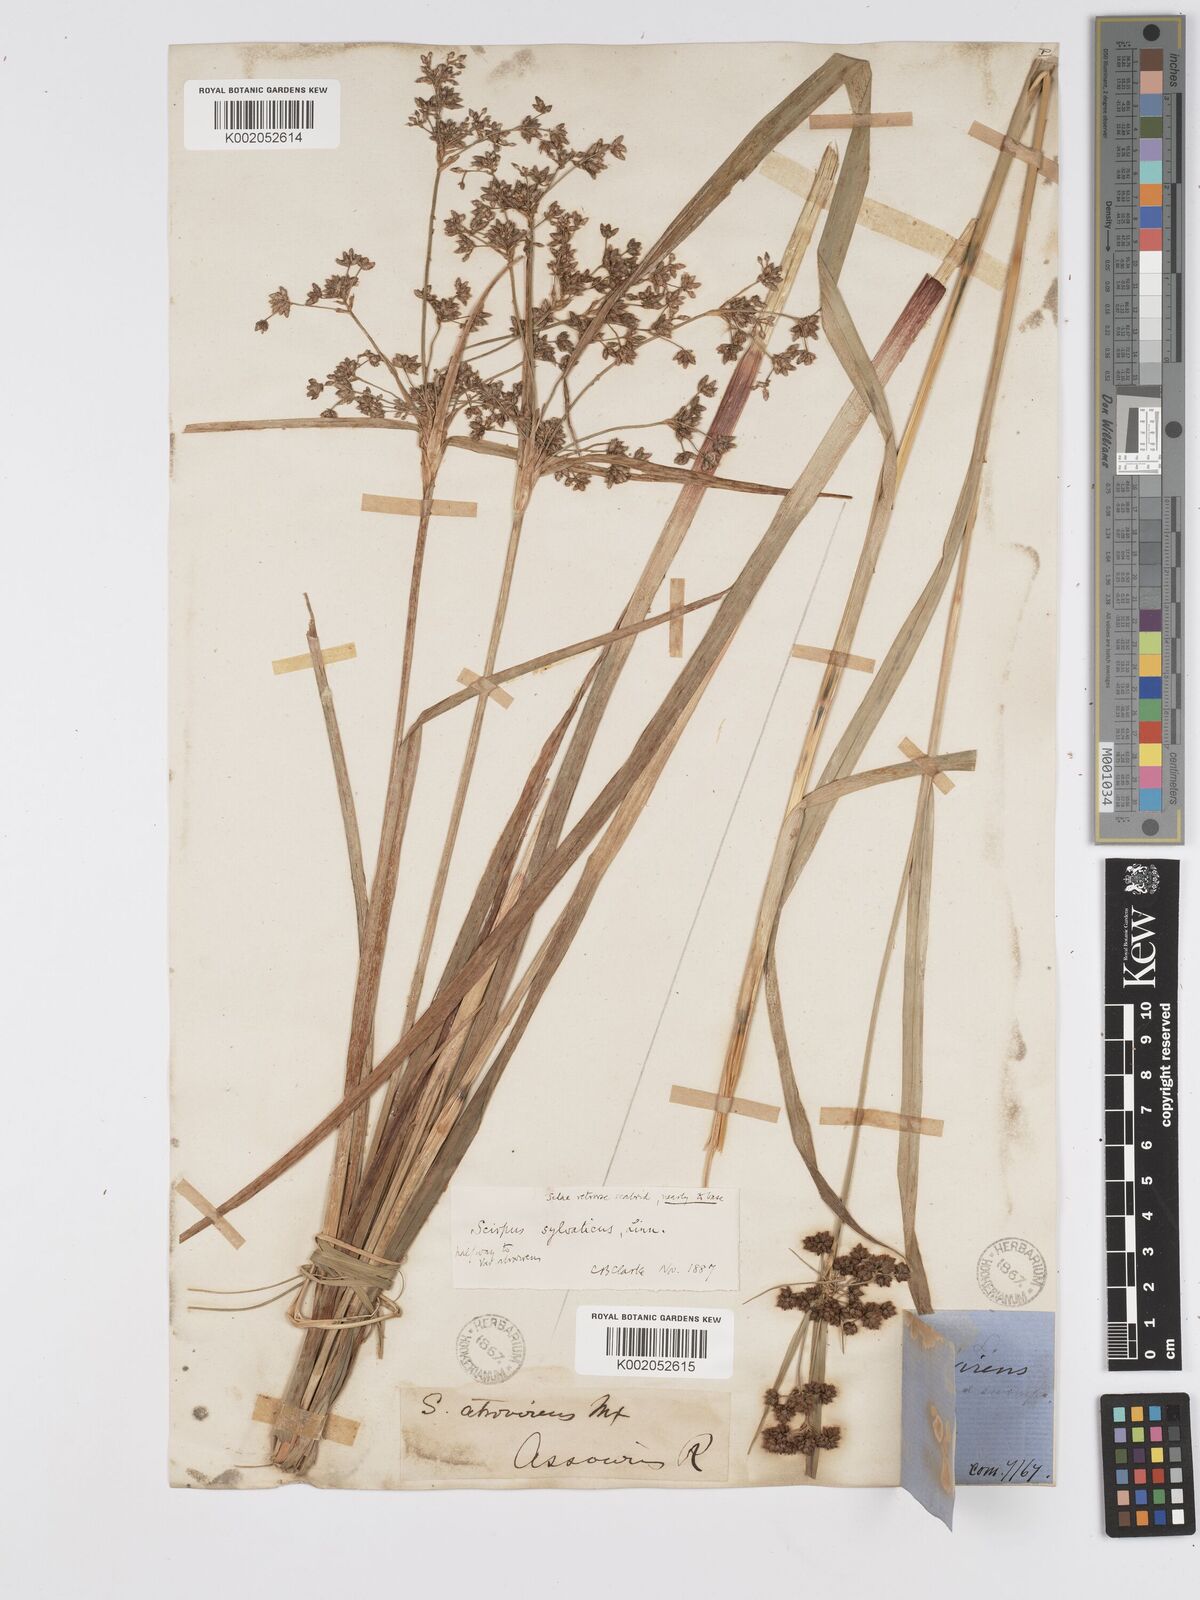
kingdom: Plantae
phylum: Tracheophyta
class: Liliopsida
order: Poales
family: Cyperaceae
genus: Scirpus
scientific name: Scirpus atrovirens
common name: Black bulrush
